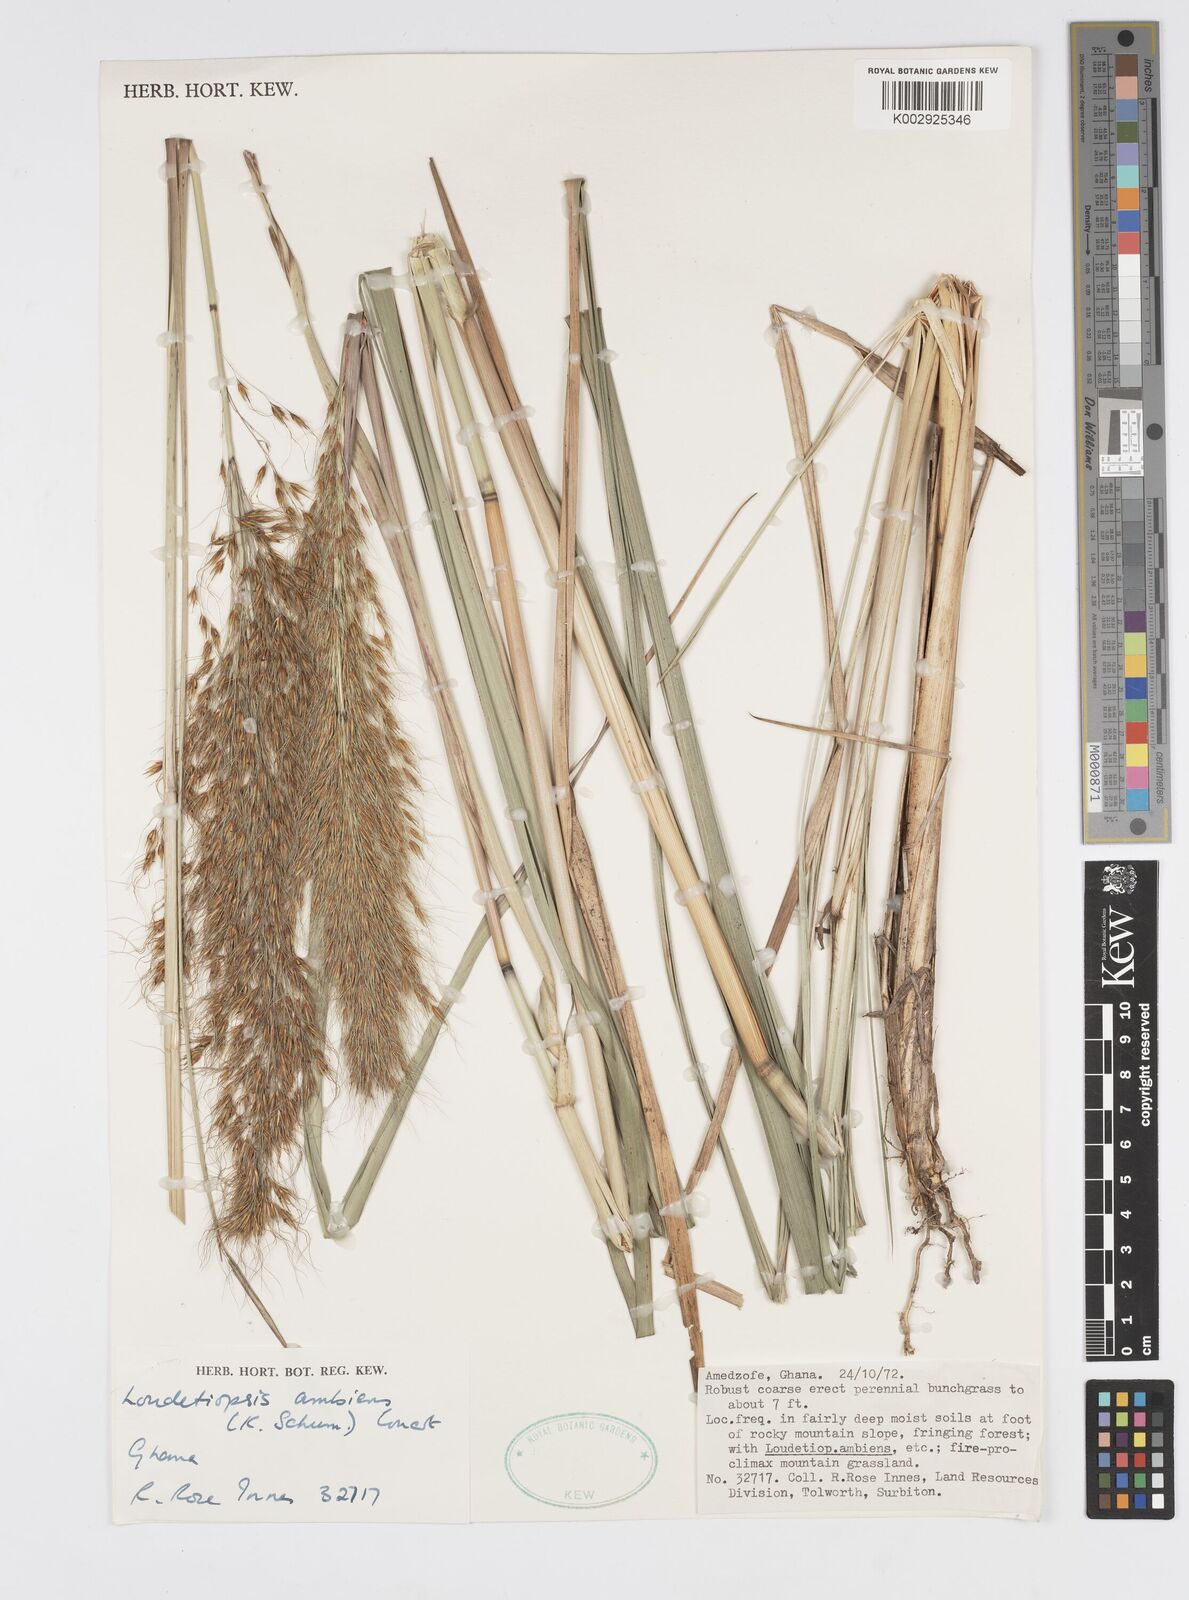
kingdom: Plantae
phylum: Tracheophyta
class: Liliopsida
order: Poales
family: Poaceae
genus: Loudetiopsis
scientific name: Loudetiopsis ambiens
